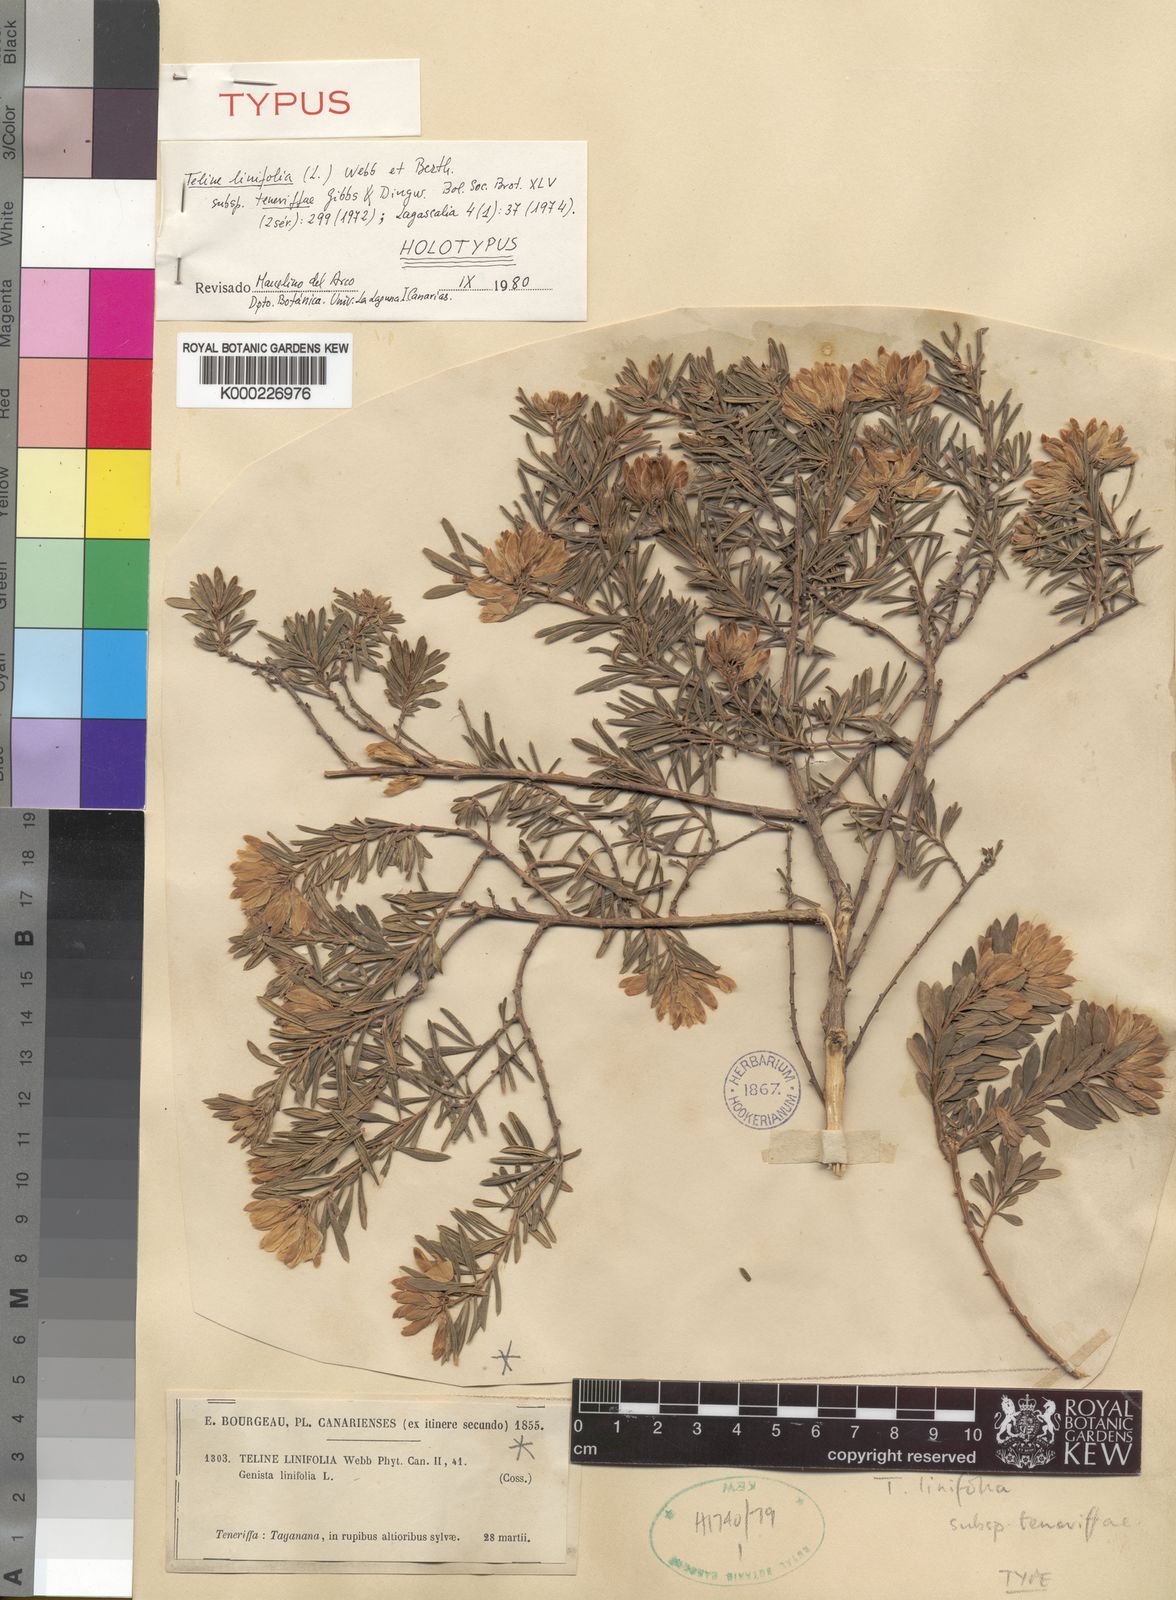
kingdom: Plantae
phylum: Tracheophyta
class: Magnoliopsida
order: Fabales
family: Fabaceae
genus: Genista
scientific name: Genista linifolia
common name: Mediterranean broom
